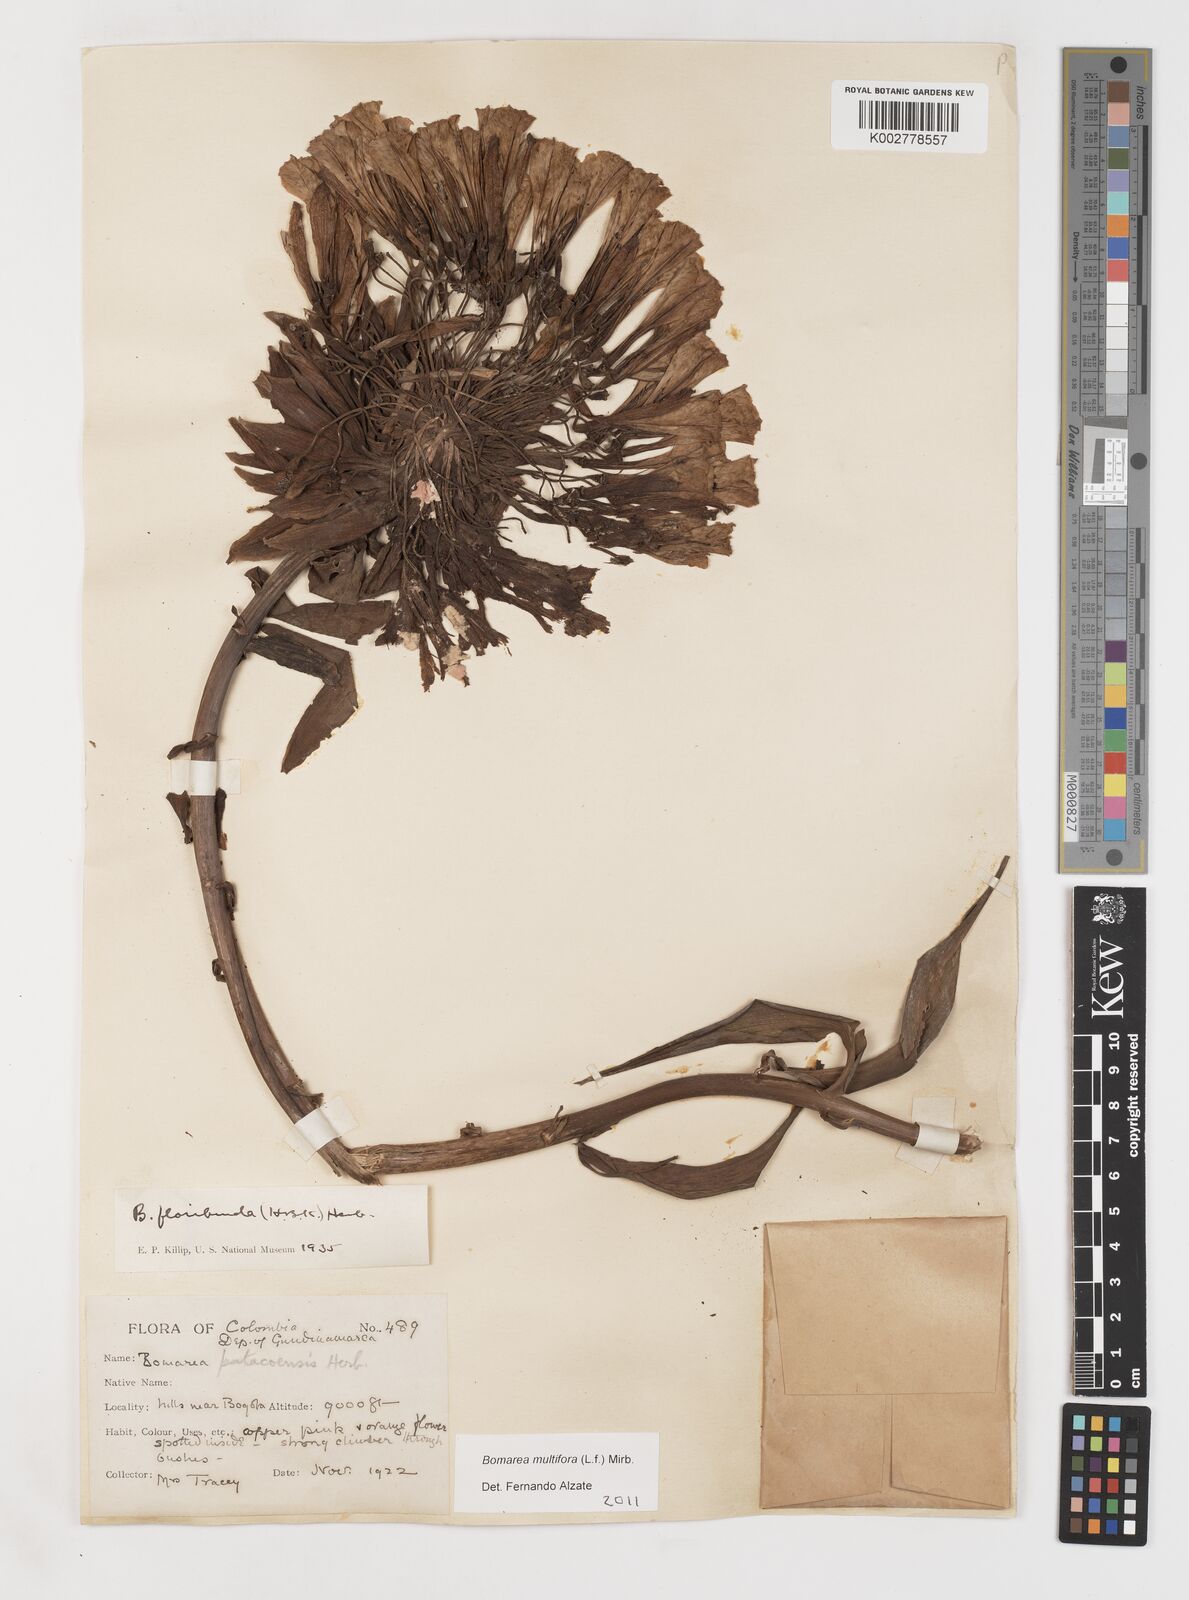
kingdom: Plantae
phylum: Tracheophyta
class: Liliopsida
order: Liliales
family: Alstroemeriaceae
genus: Bomarea
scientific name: Bomarea multiflora
